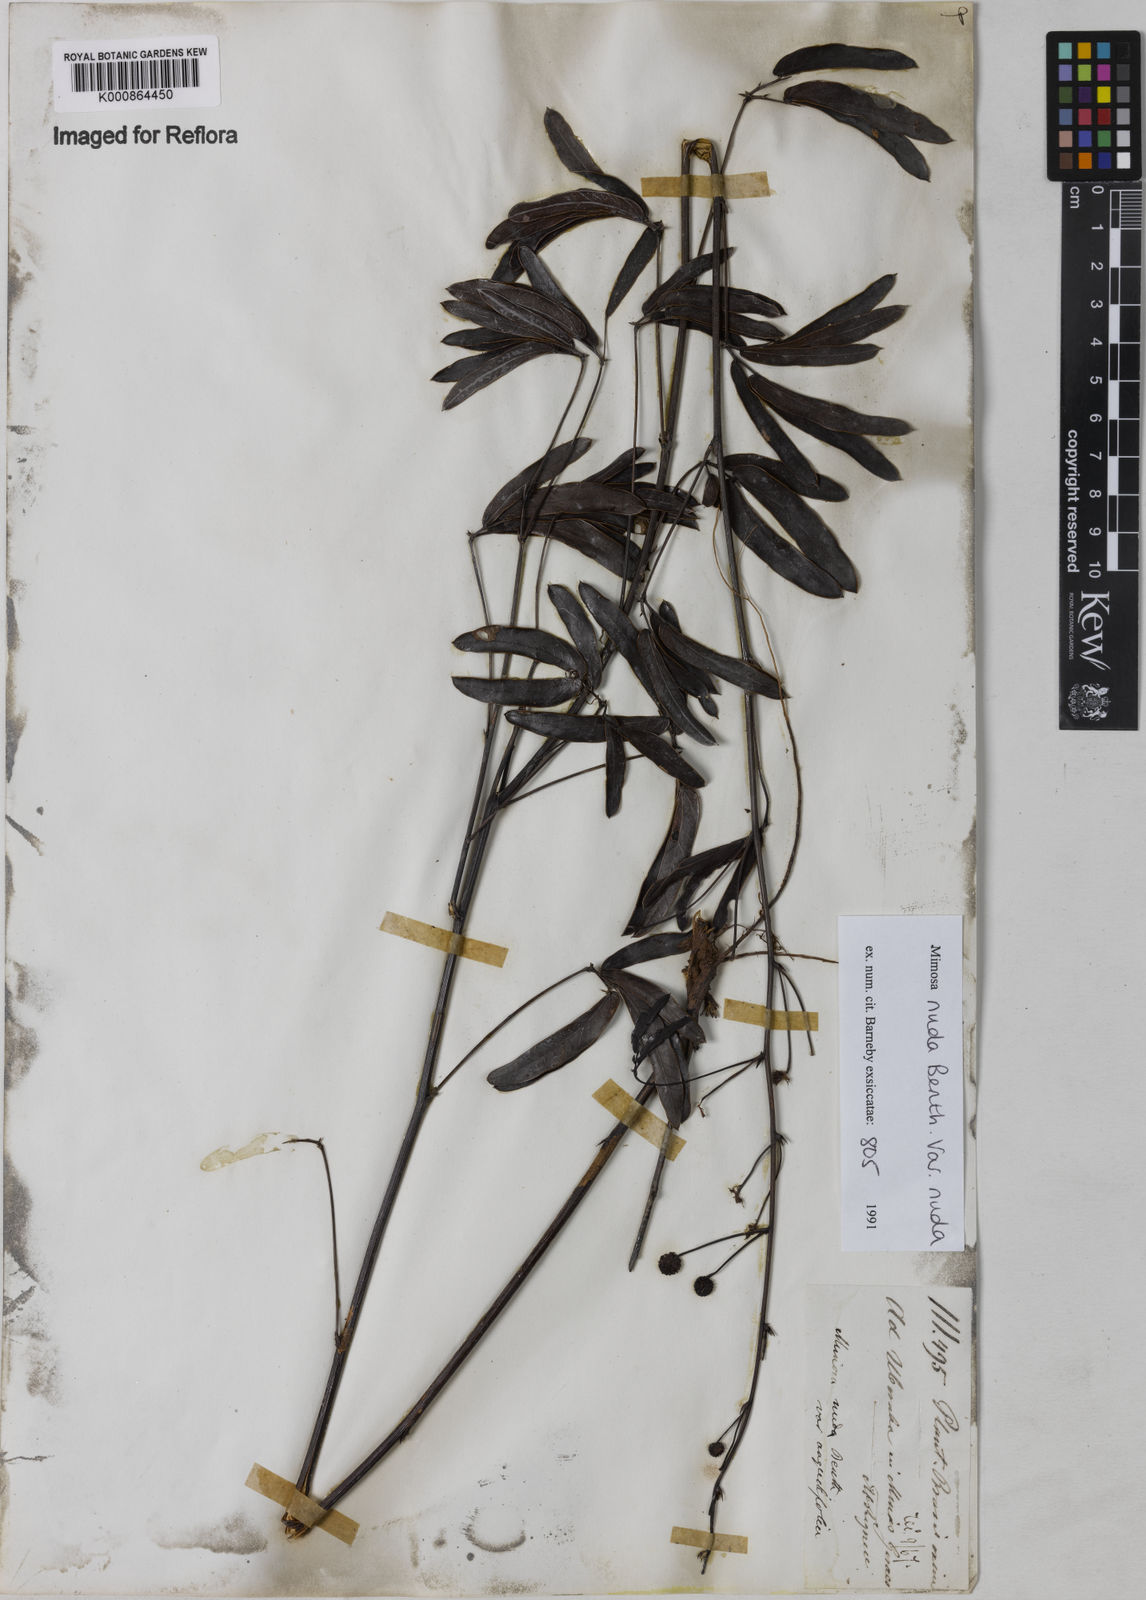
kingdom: Plantae
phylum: Tracheophyta
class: Magnoliopsida
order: Fabales
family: Fabaceae
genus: Mimosa
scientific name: Mimosa debilis
